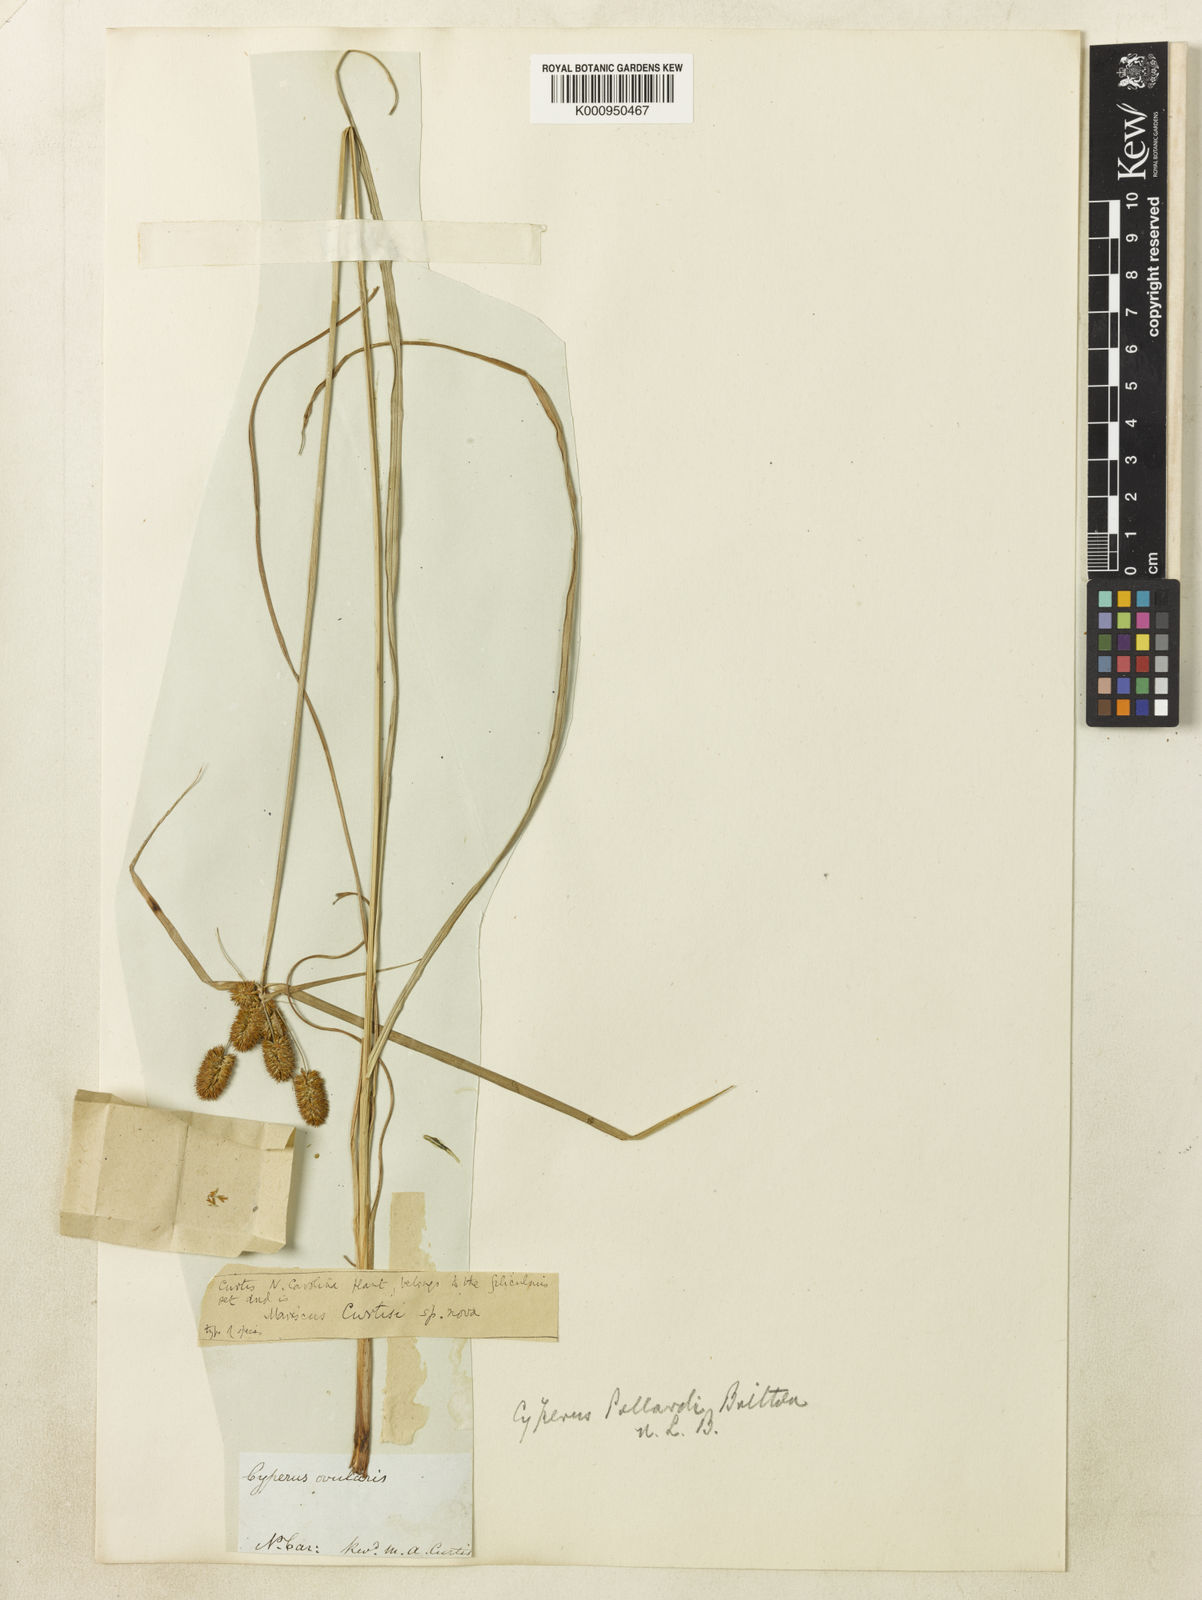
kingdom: Plantae
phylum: Tracheophyta
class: Liliopsida
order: Poales
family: Cyperaceae
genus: Cyperus
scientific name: Cyperus retrorsus
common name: Pinebarren flat sedge
